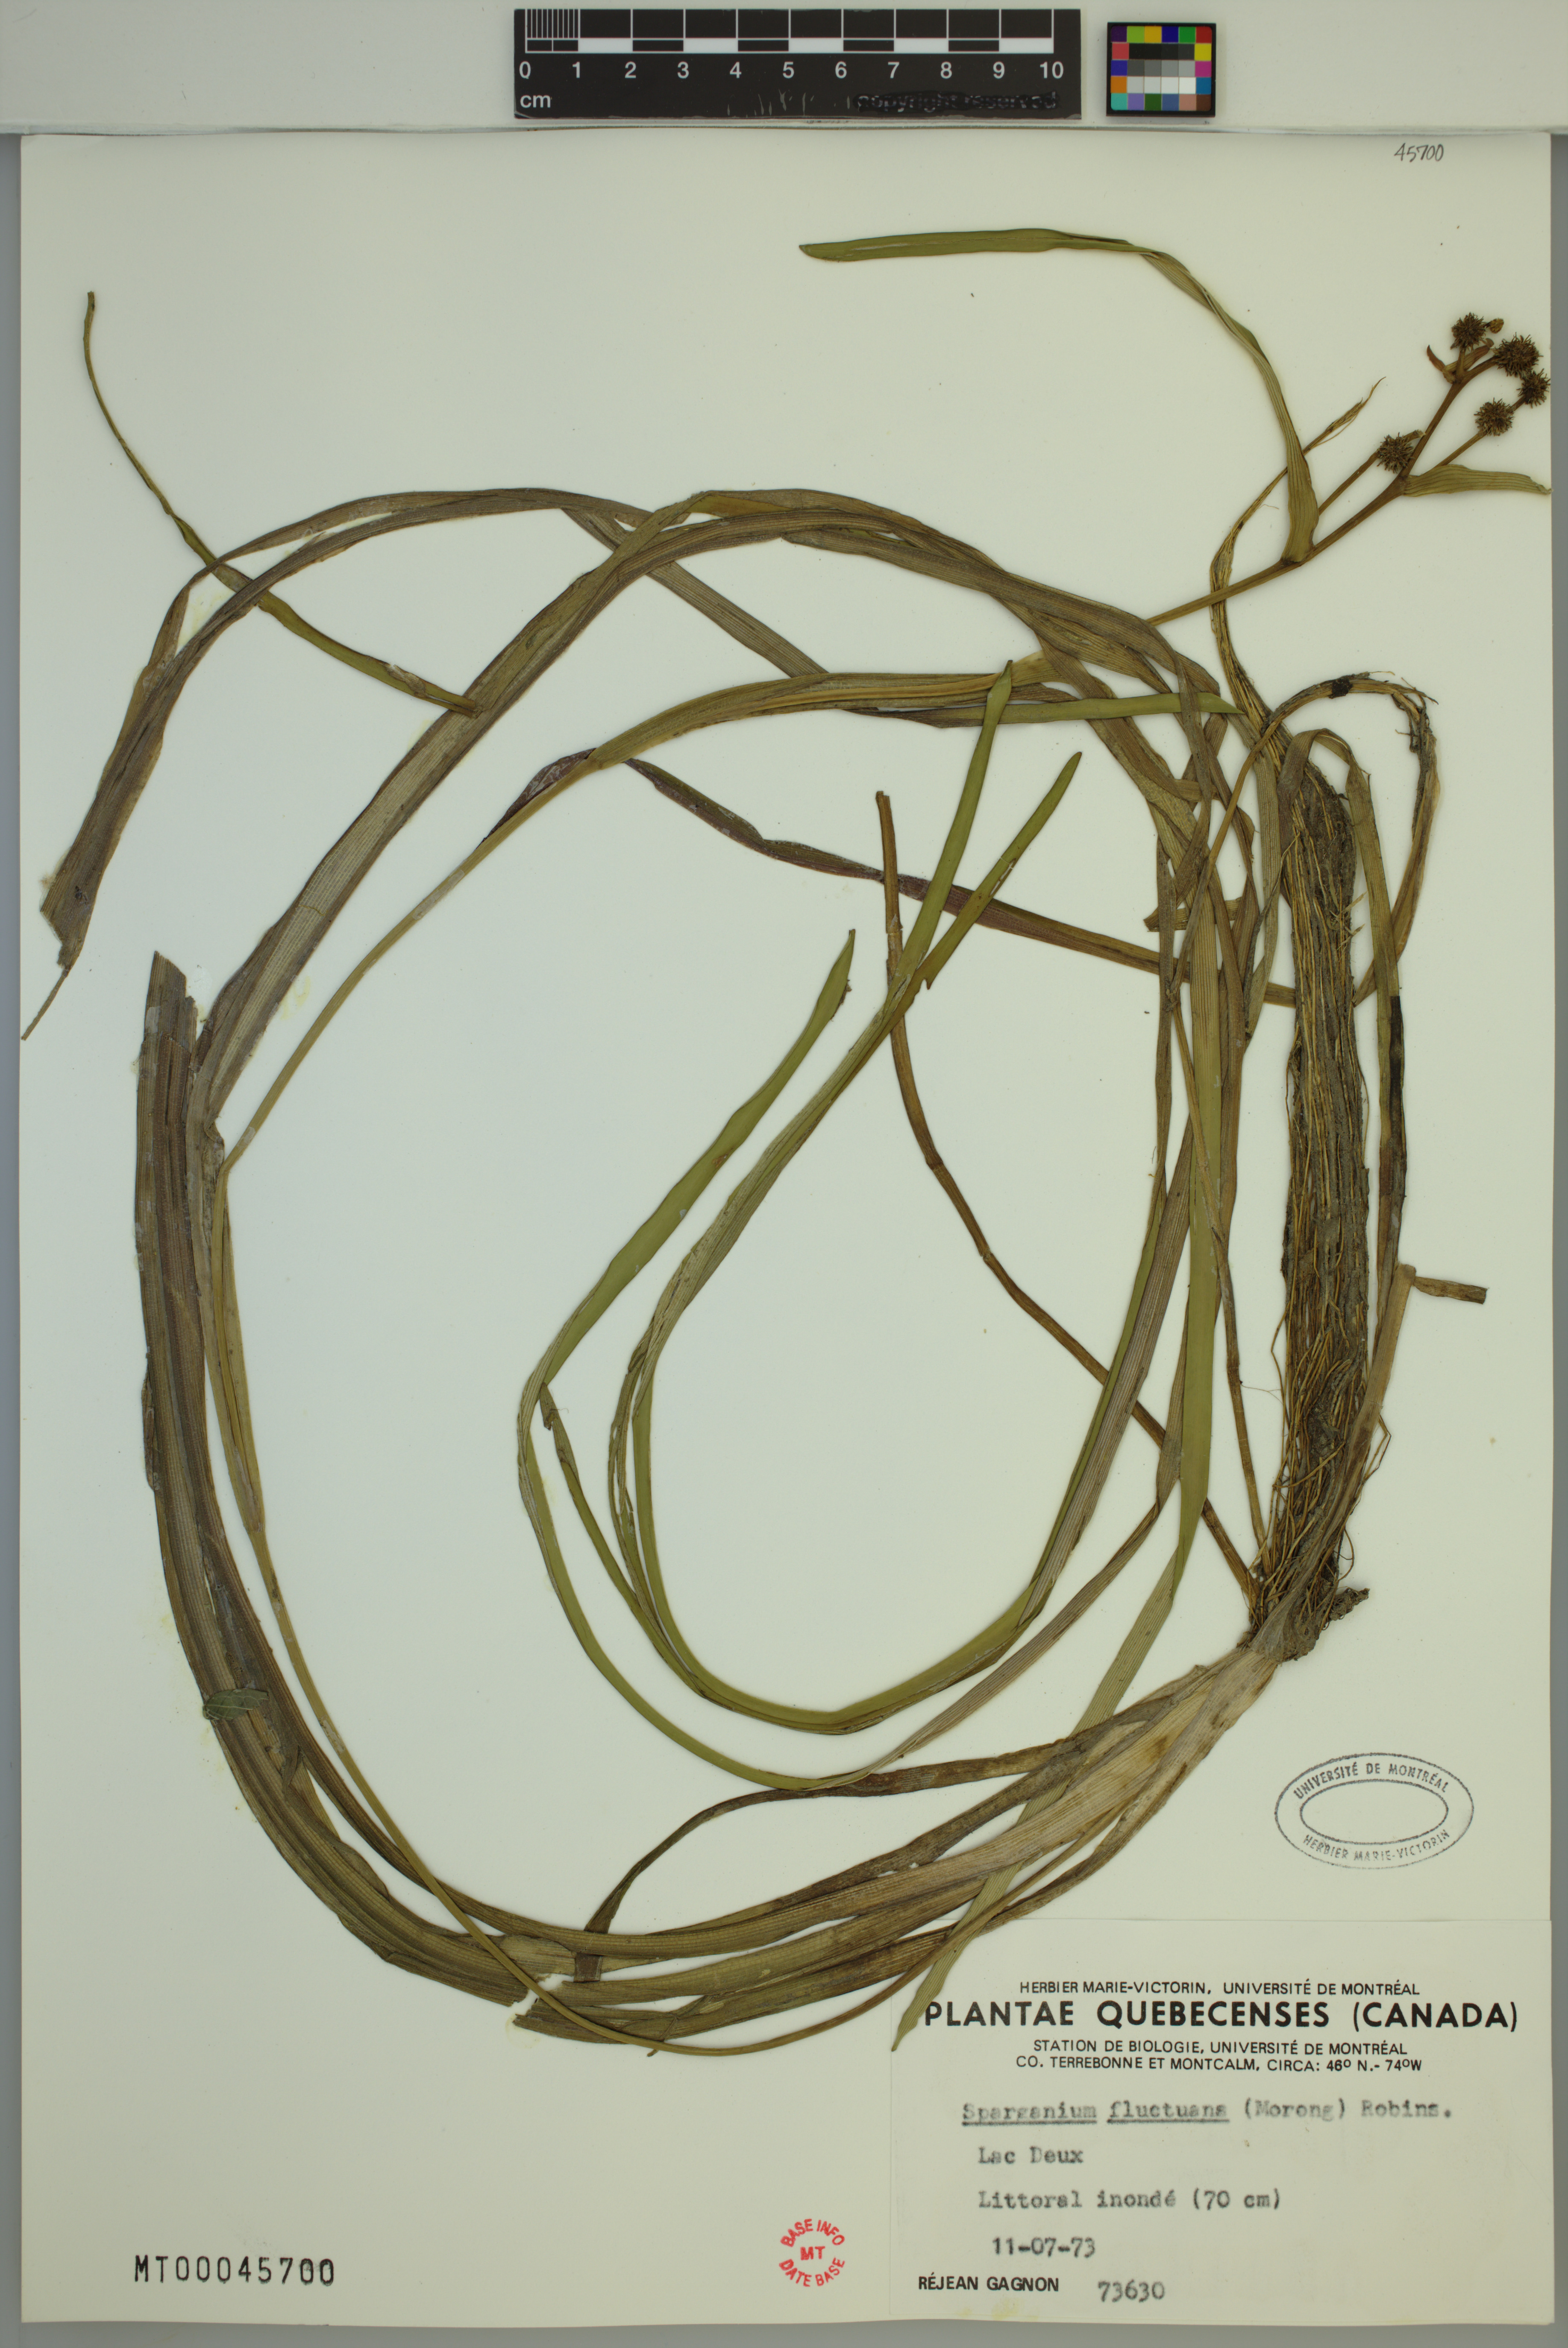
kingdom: Plantae
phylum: Tracheophyta
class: Liliopsida
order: Poales
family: Typhaceae
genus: Sparganium
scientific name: Sparganium fluctuans
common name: Floating burreed
